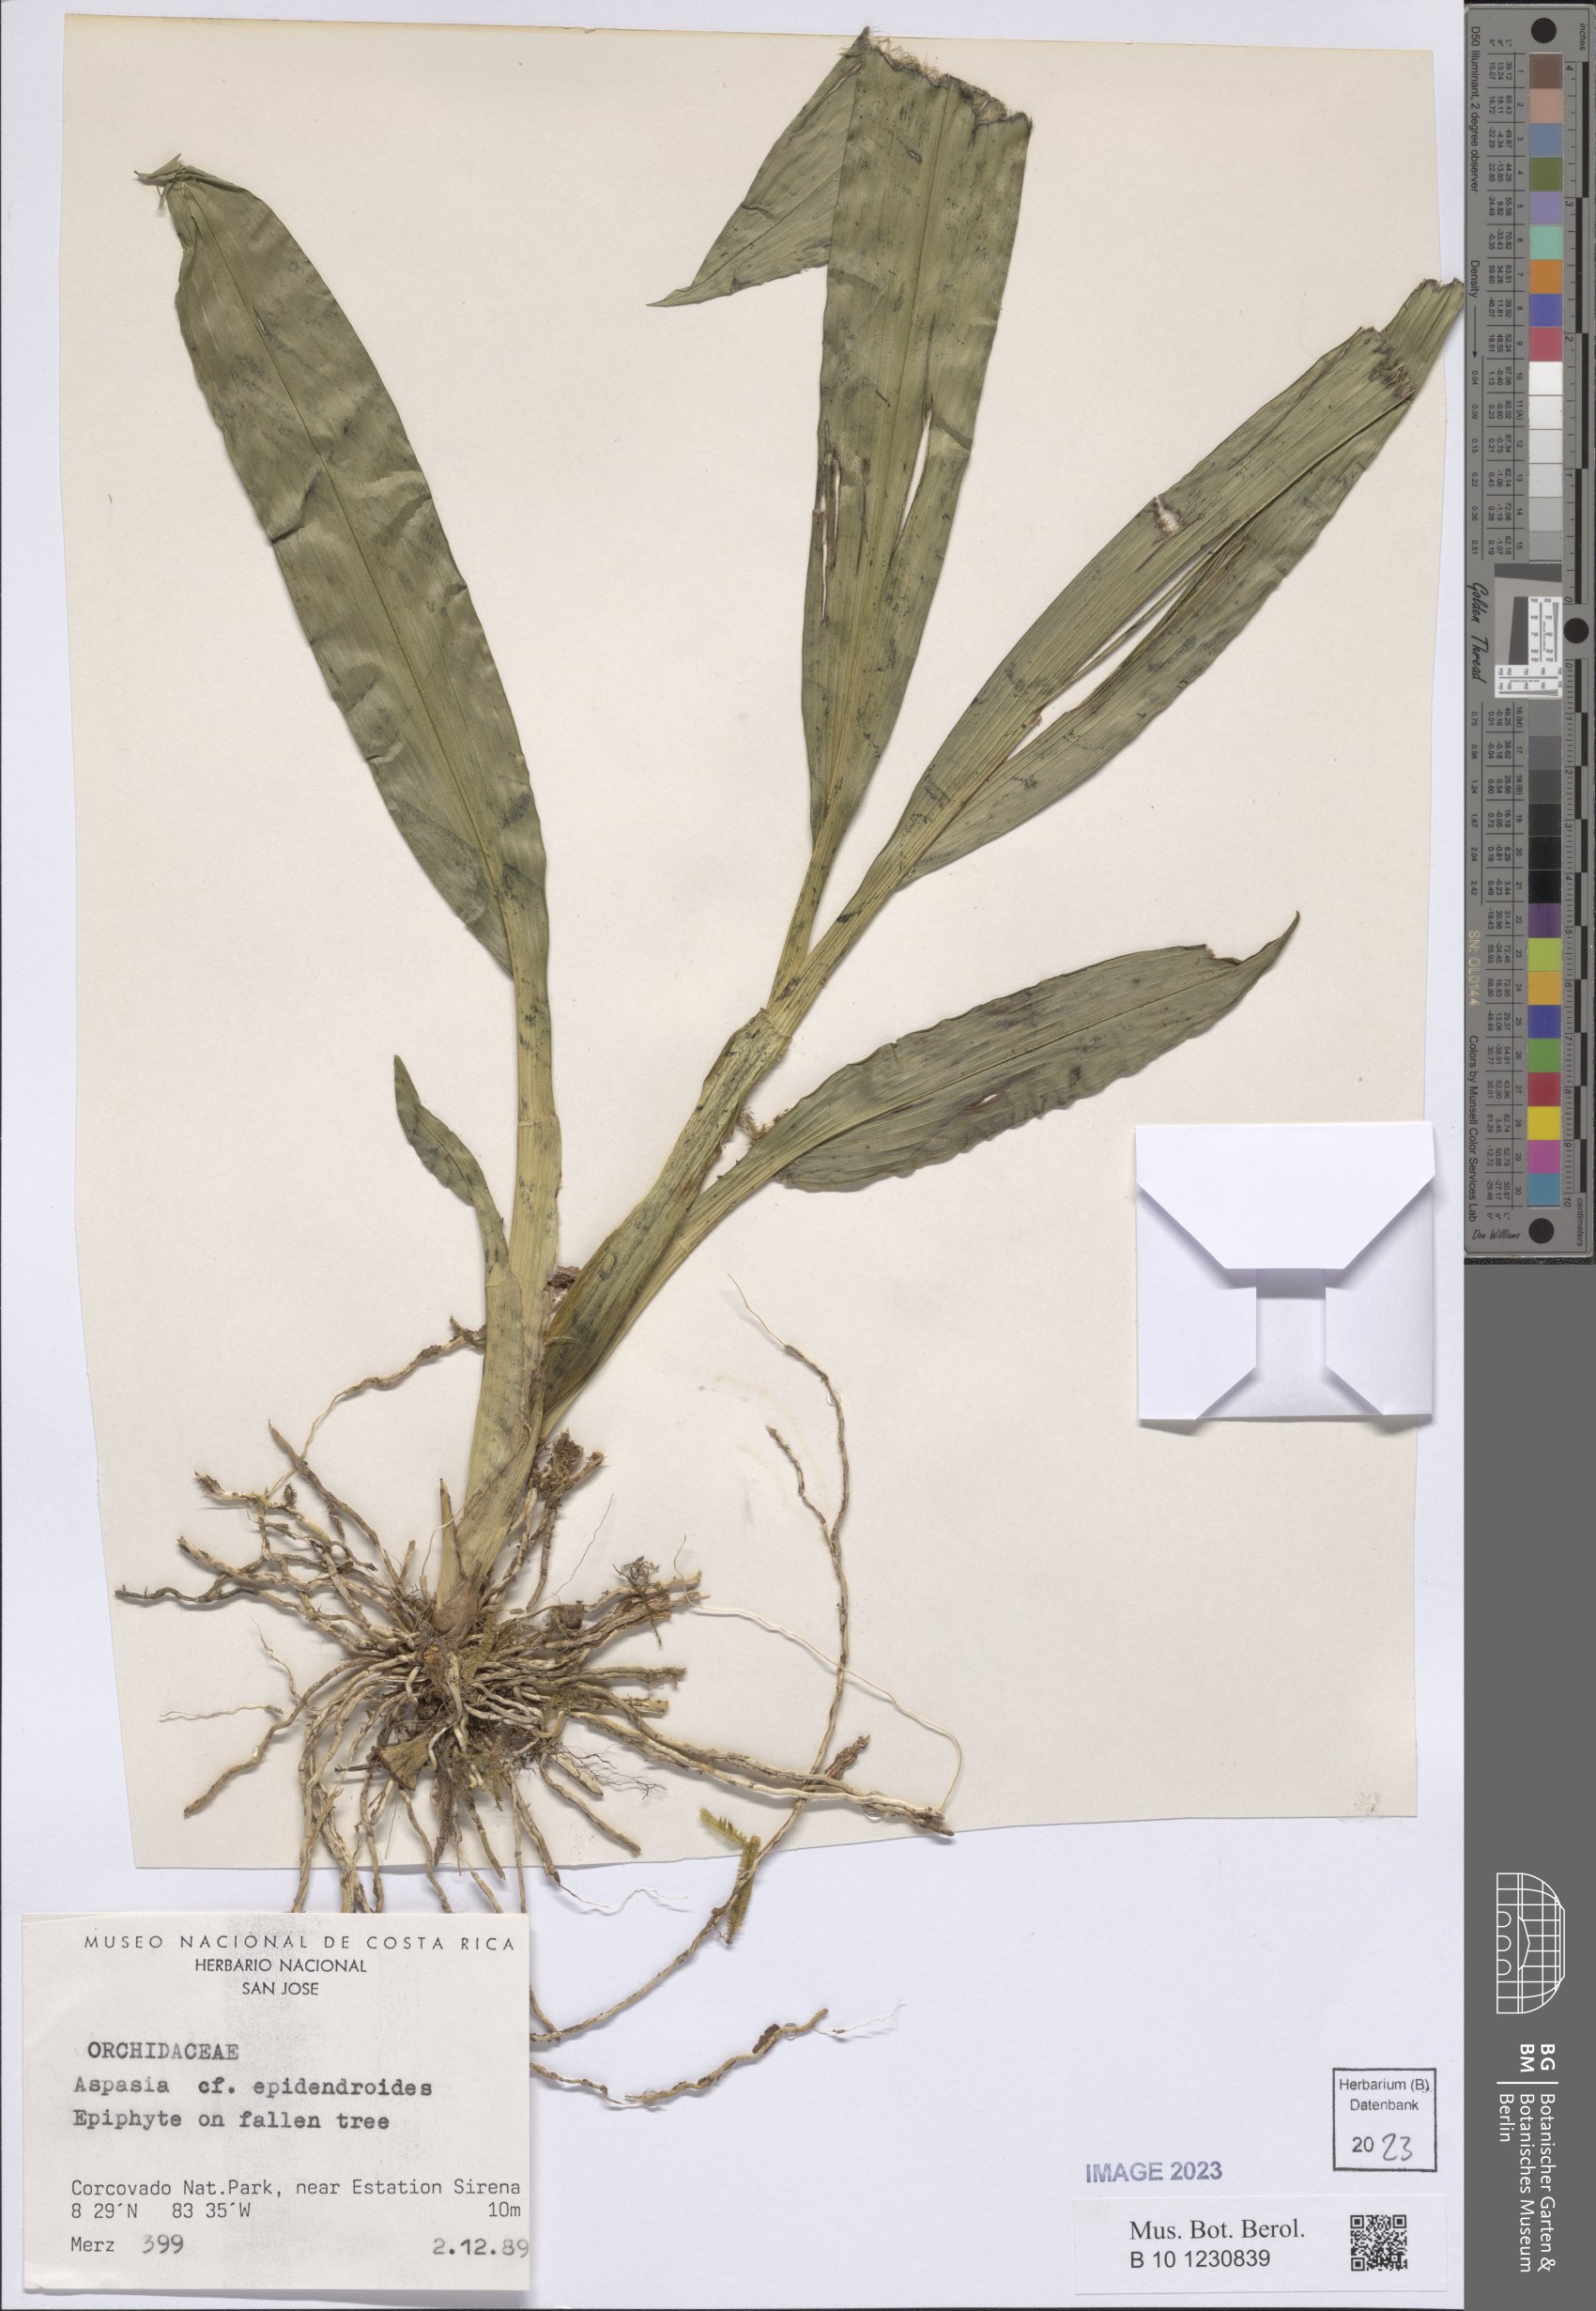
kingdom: Plantae
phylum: Tracheophyta
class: Liliopsida
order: Asparagales
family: Orchidaceae
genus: Aspasia
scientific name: Aspasia epidendroides
